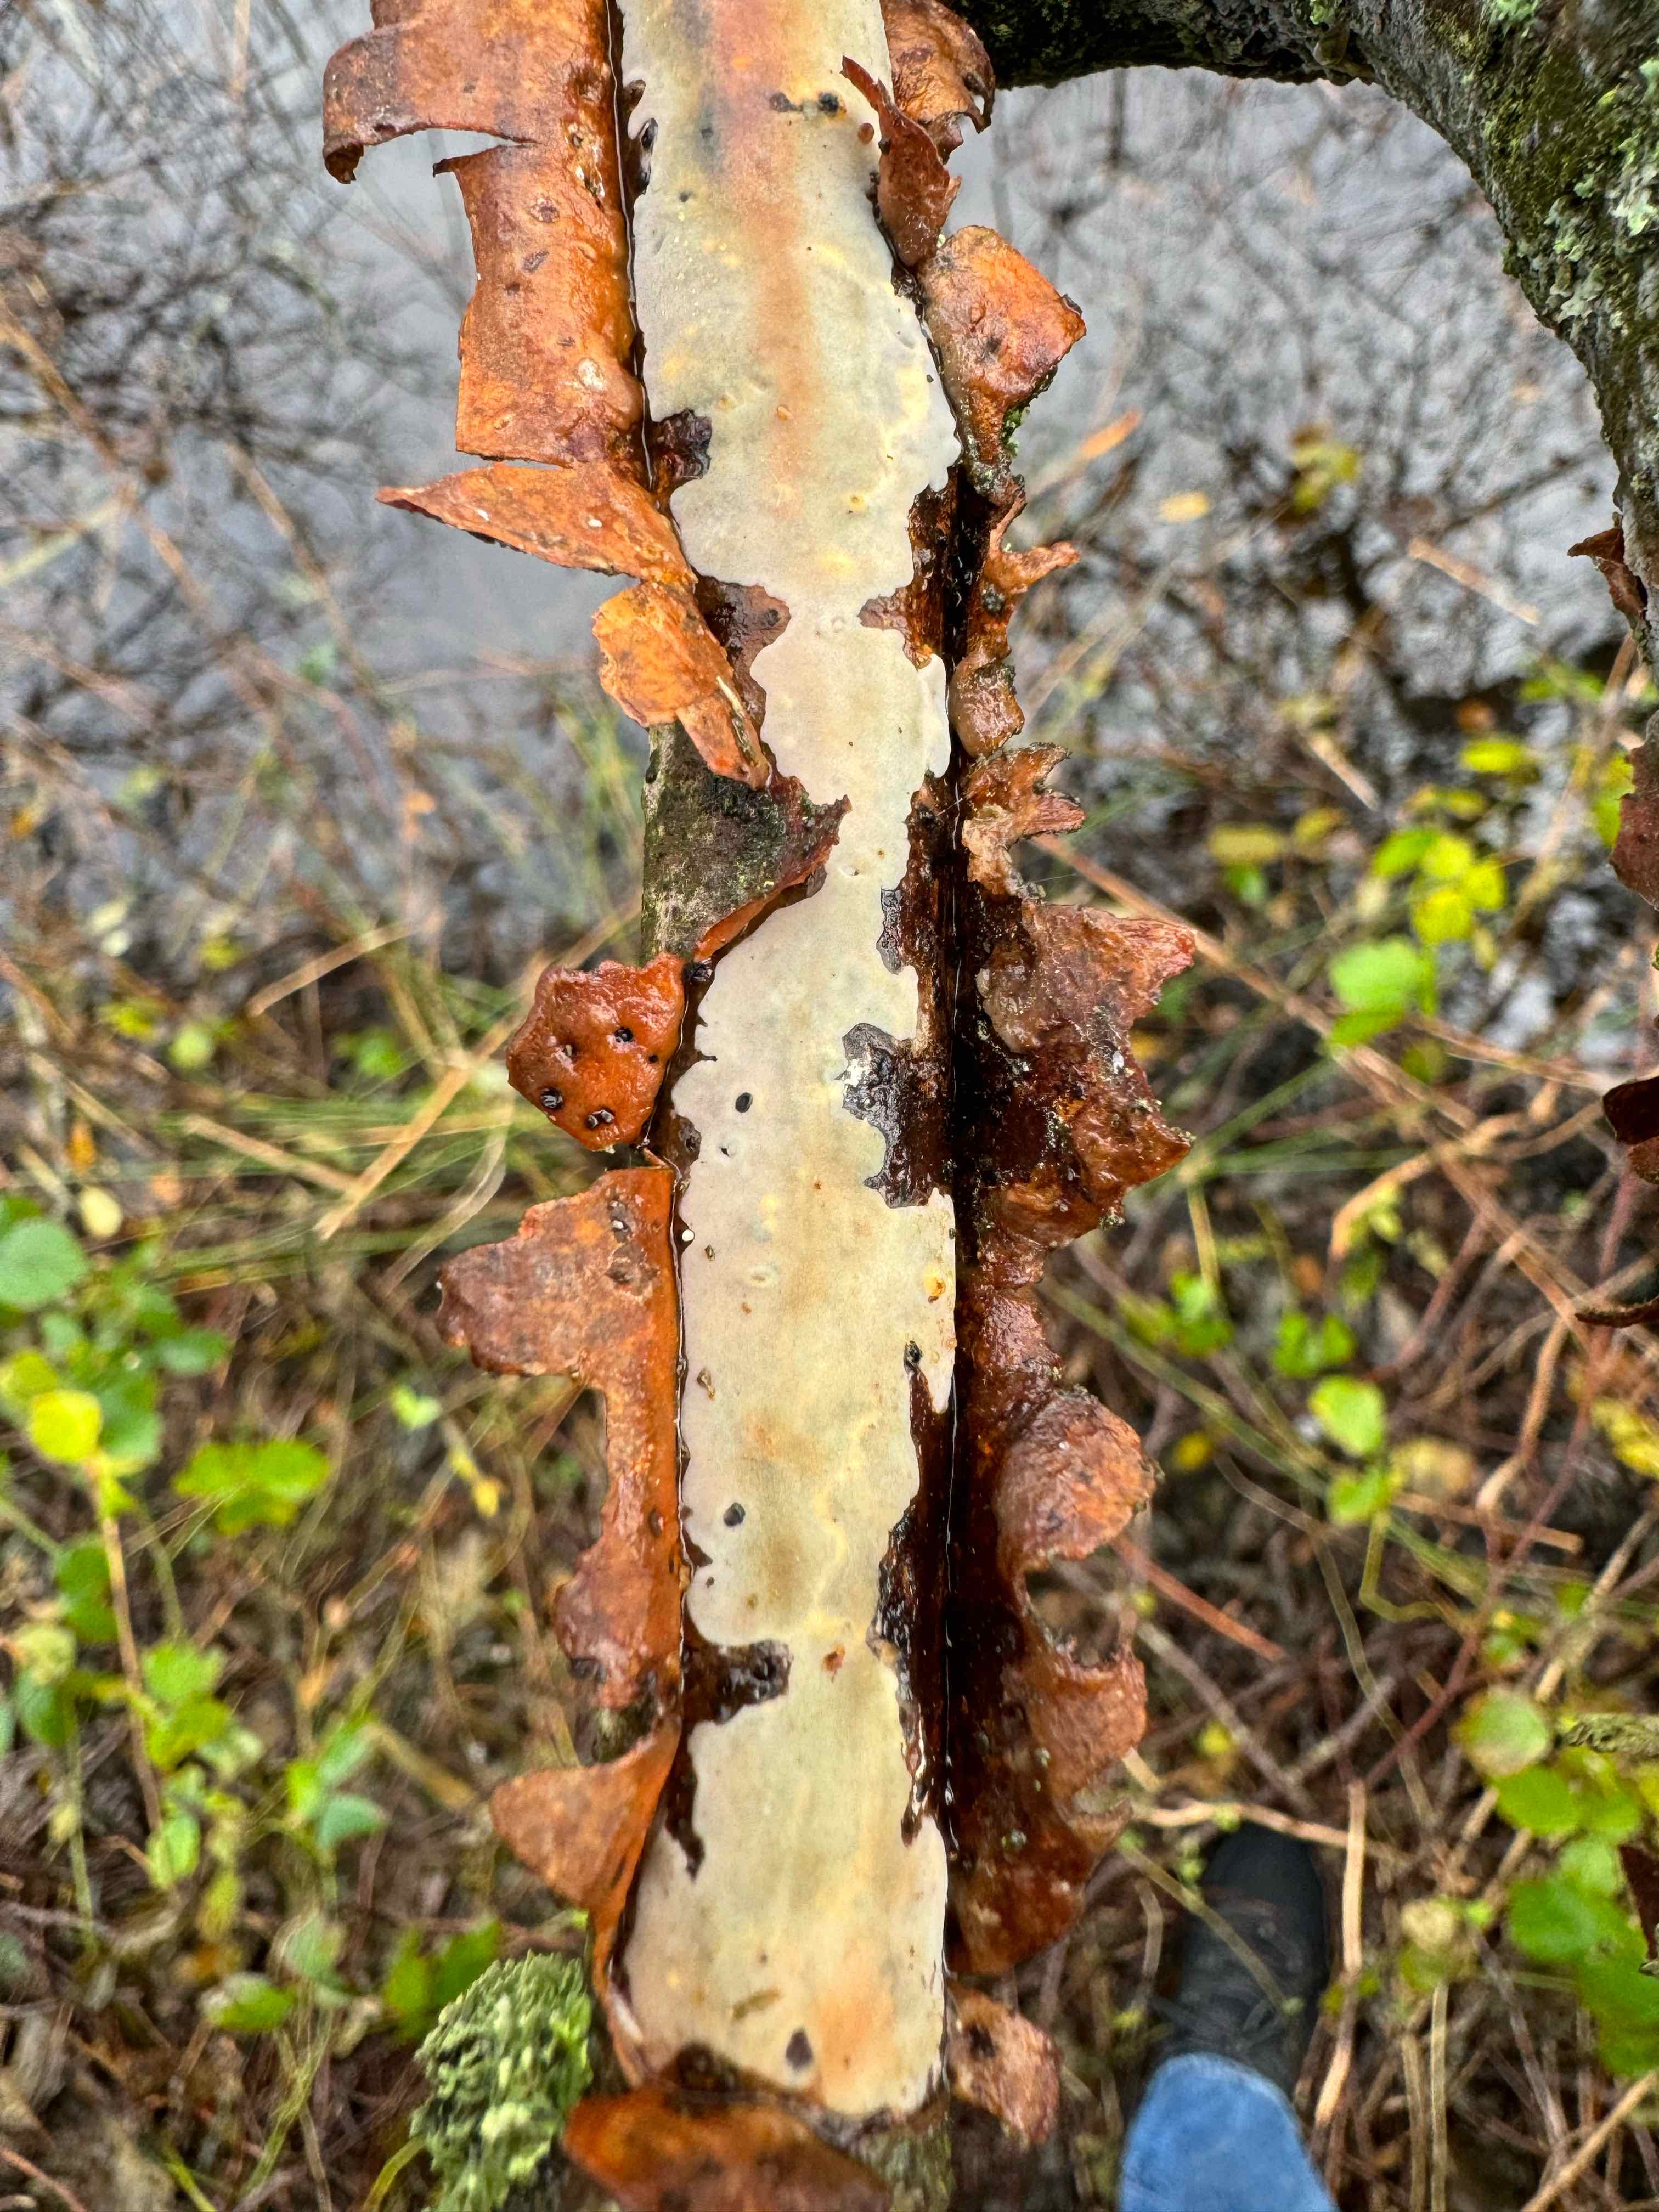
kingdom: Fungi
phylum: Basidiomycota
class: Agaricomycetes
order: Corticiales
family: Vuilleminiaceae
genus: Vuilleminia
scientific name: Vuilleminia comedens
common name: almindelig barksprænger
